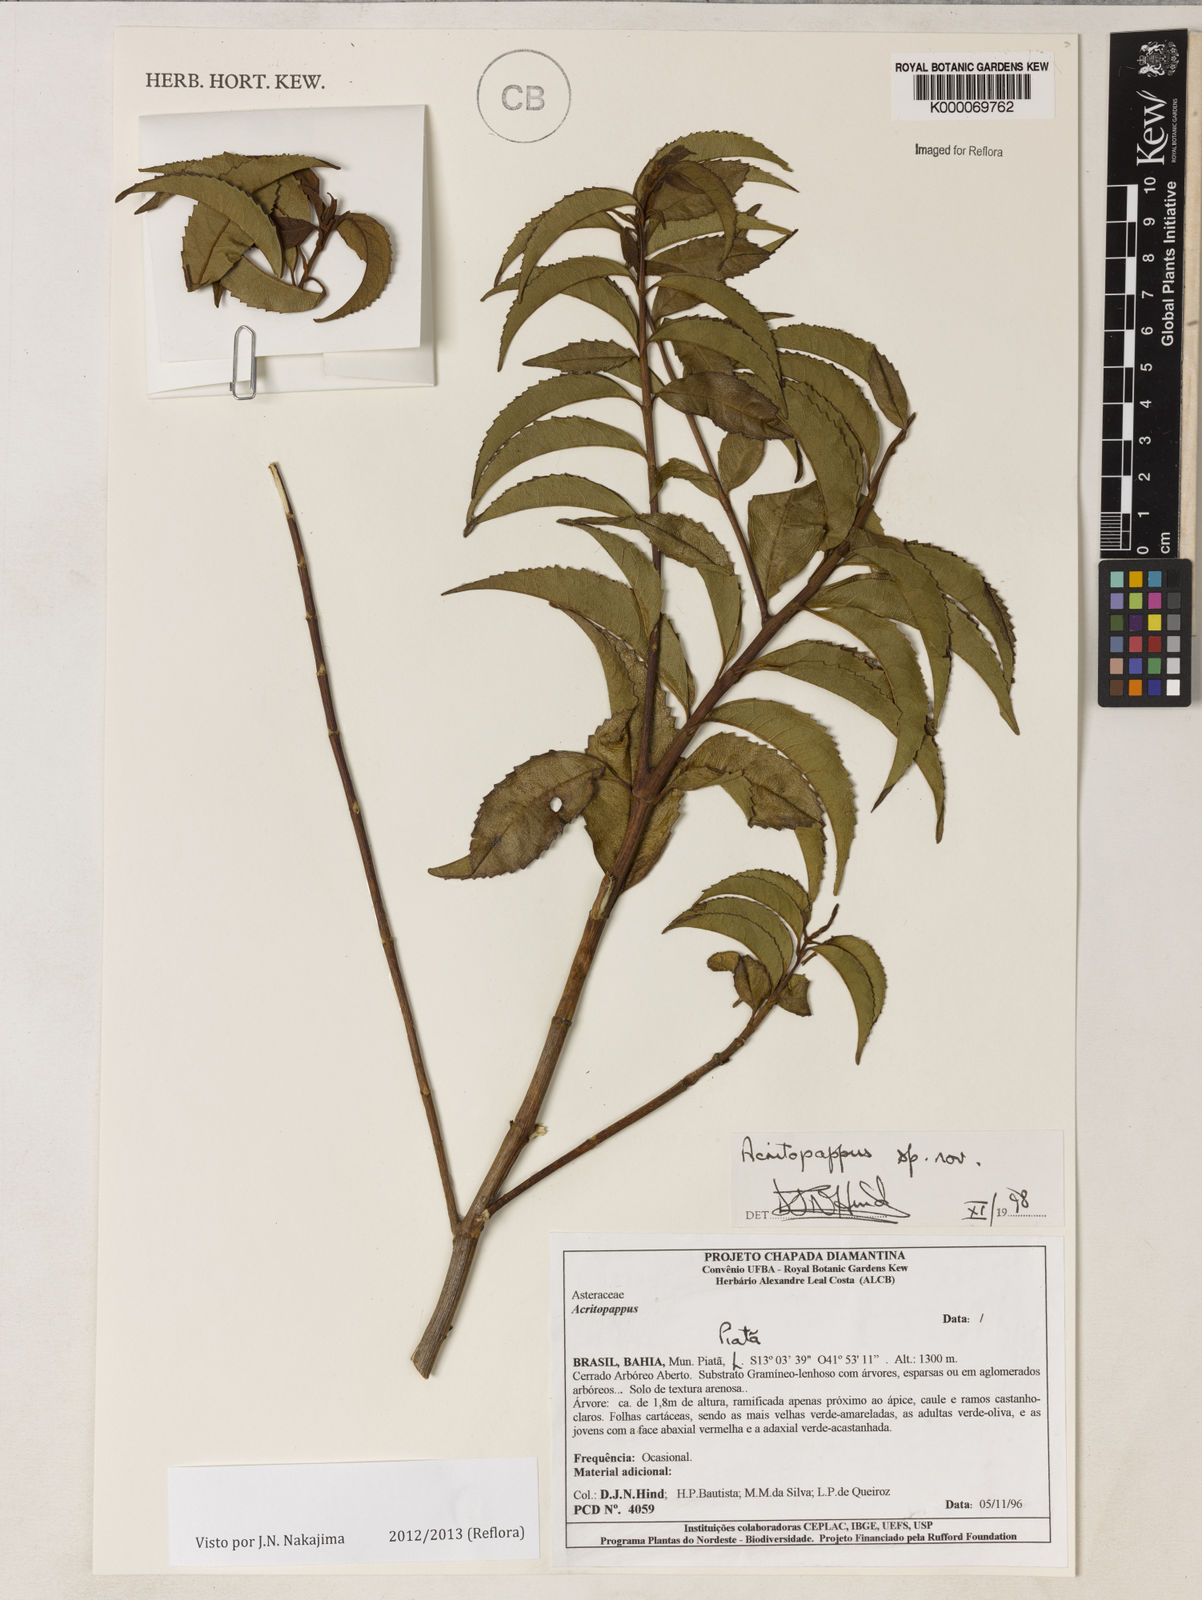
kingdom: Plantae
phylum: Tracheophyta
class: Magnoliopsida
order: Asterales
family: Asteraceae
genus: Acritopappus
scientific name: Acritopappus
